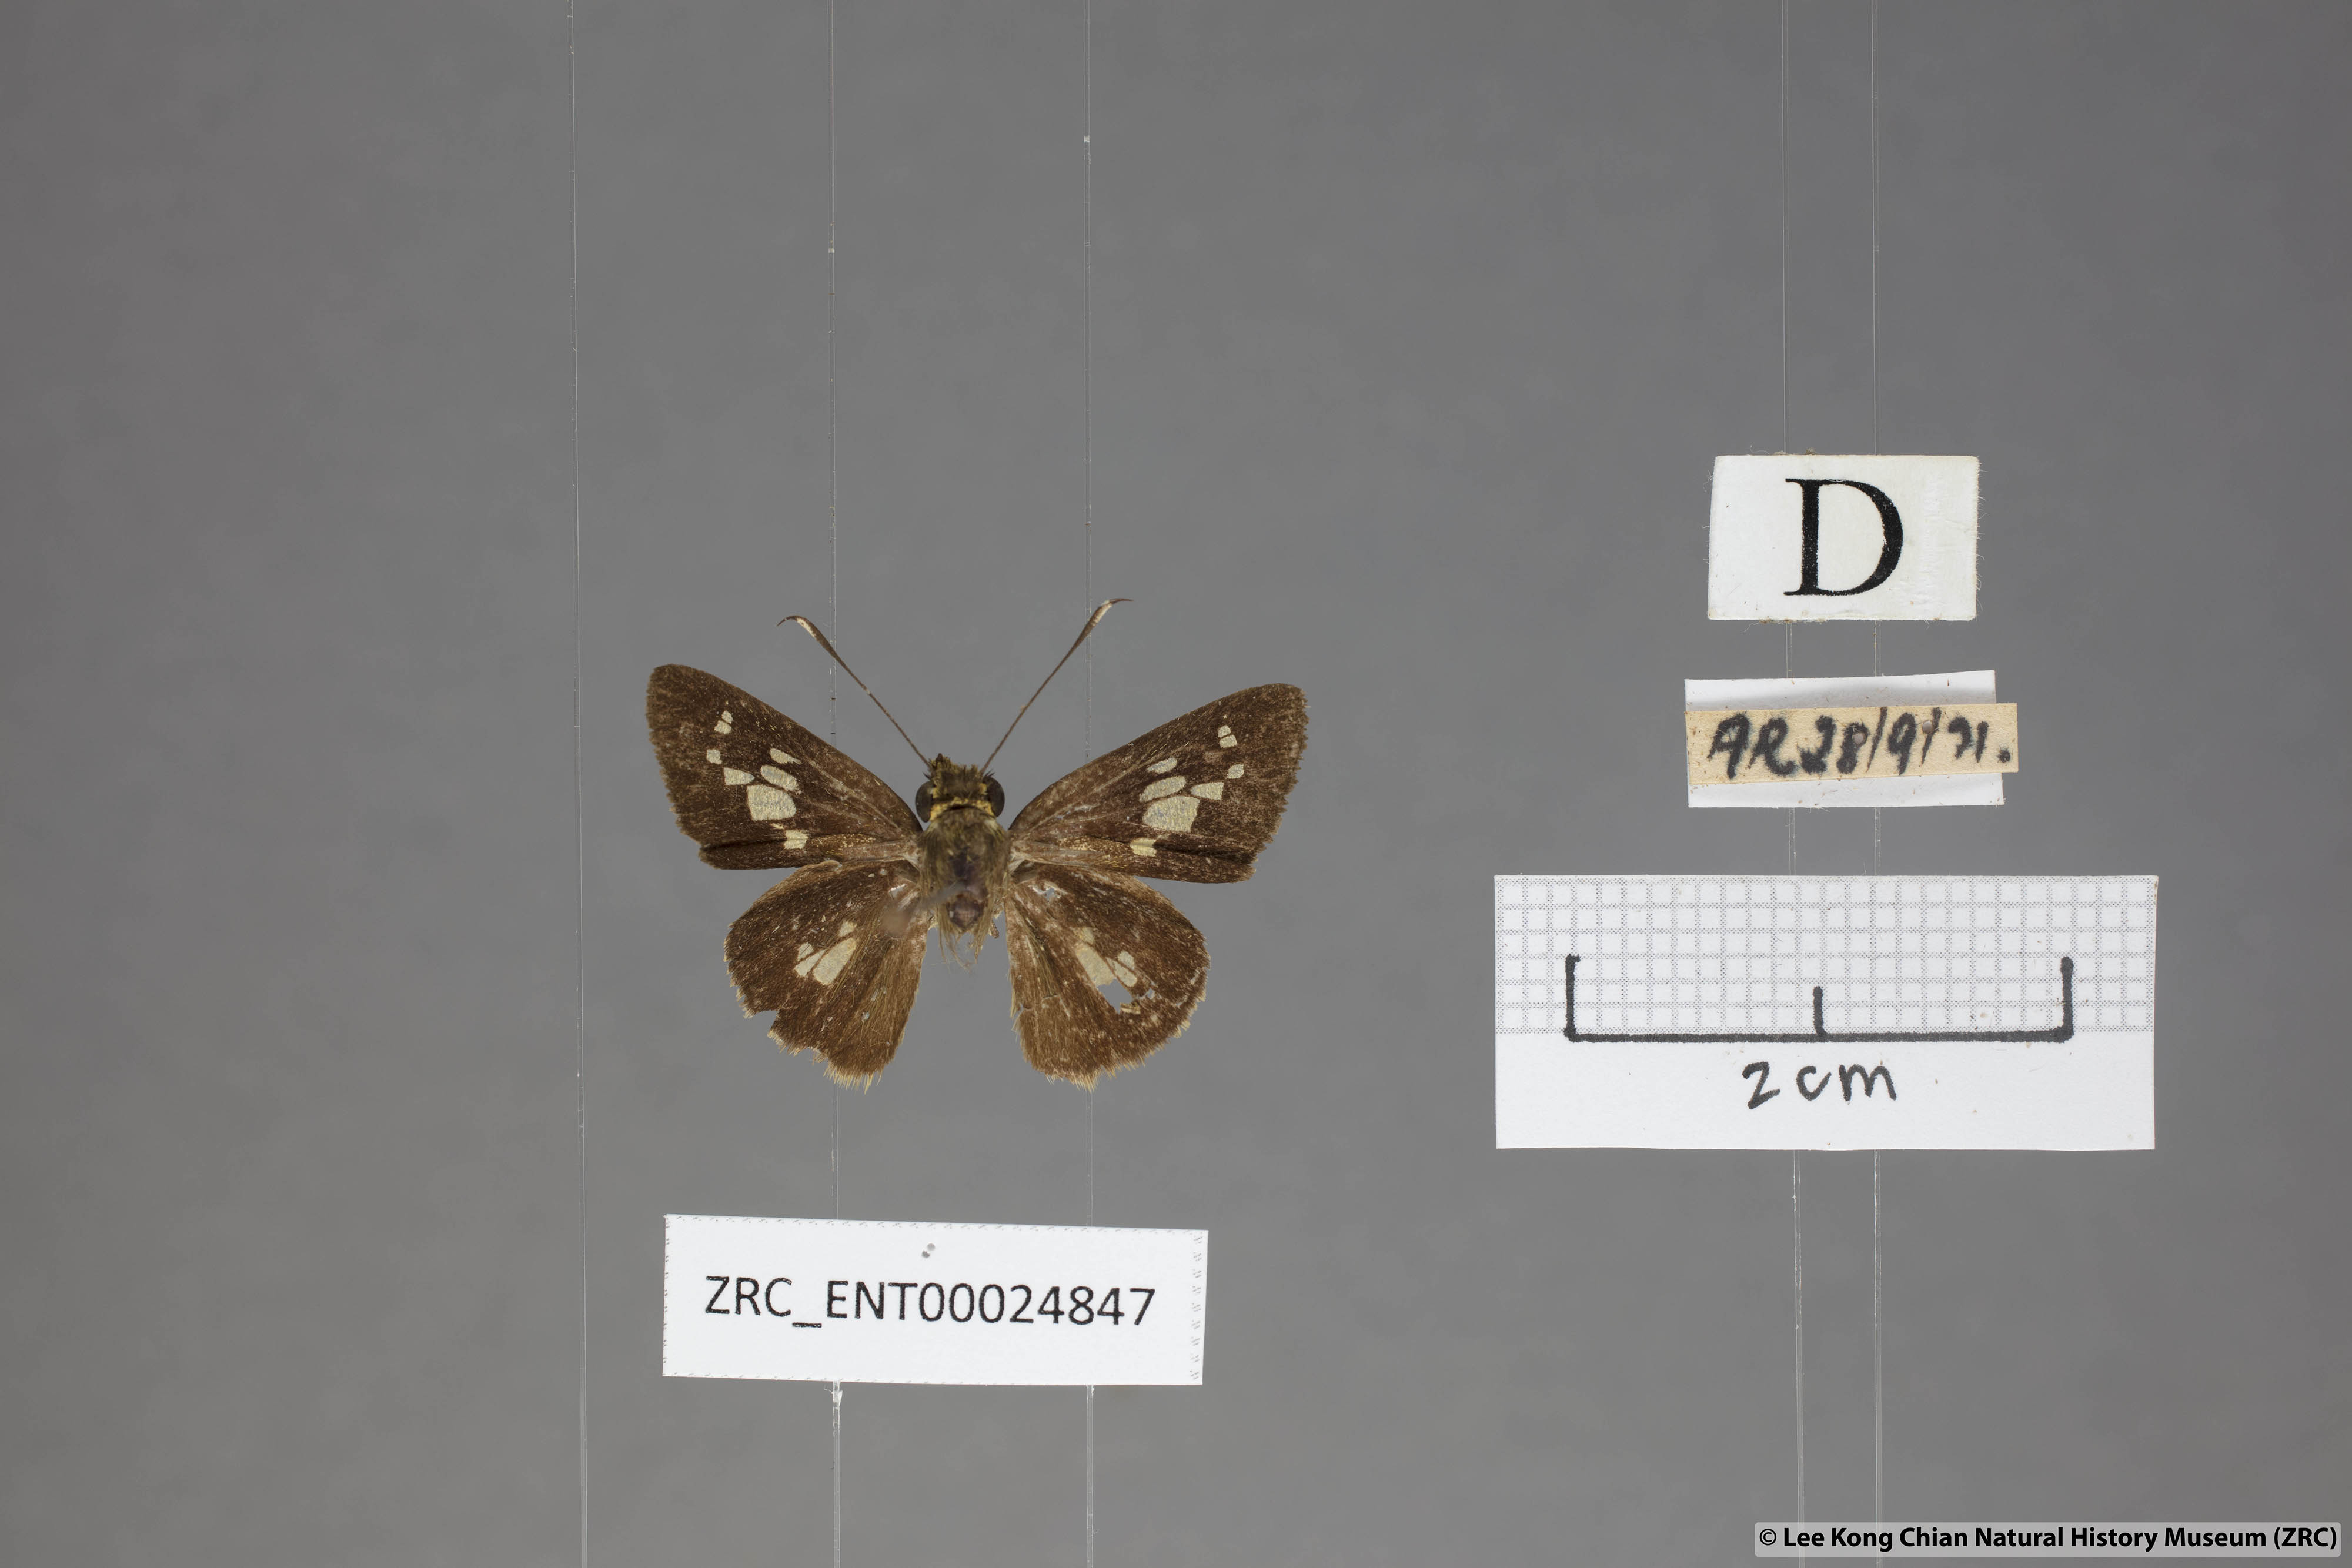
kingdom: Animalia
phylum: Arthropoda
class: Insecta
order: Lepidoptera
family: Hesperiidae
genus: Isma
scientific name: Isma bononia
